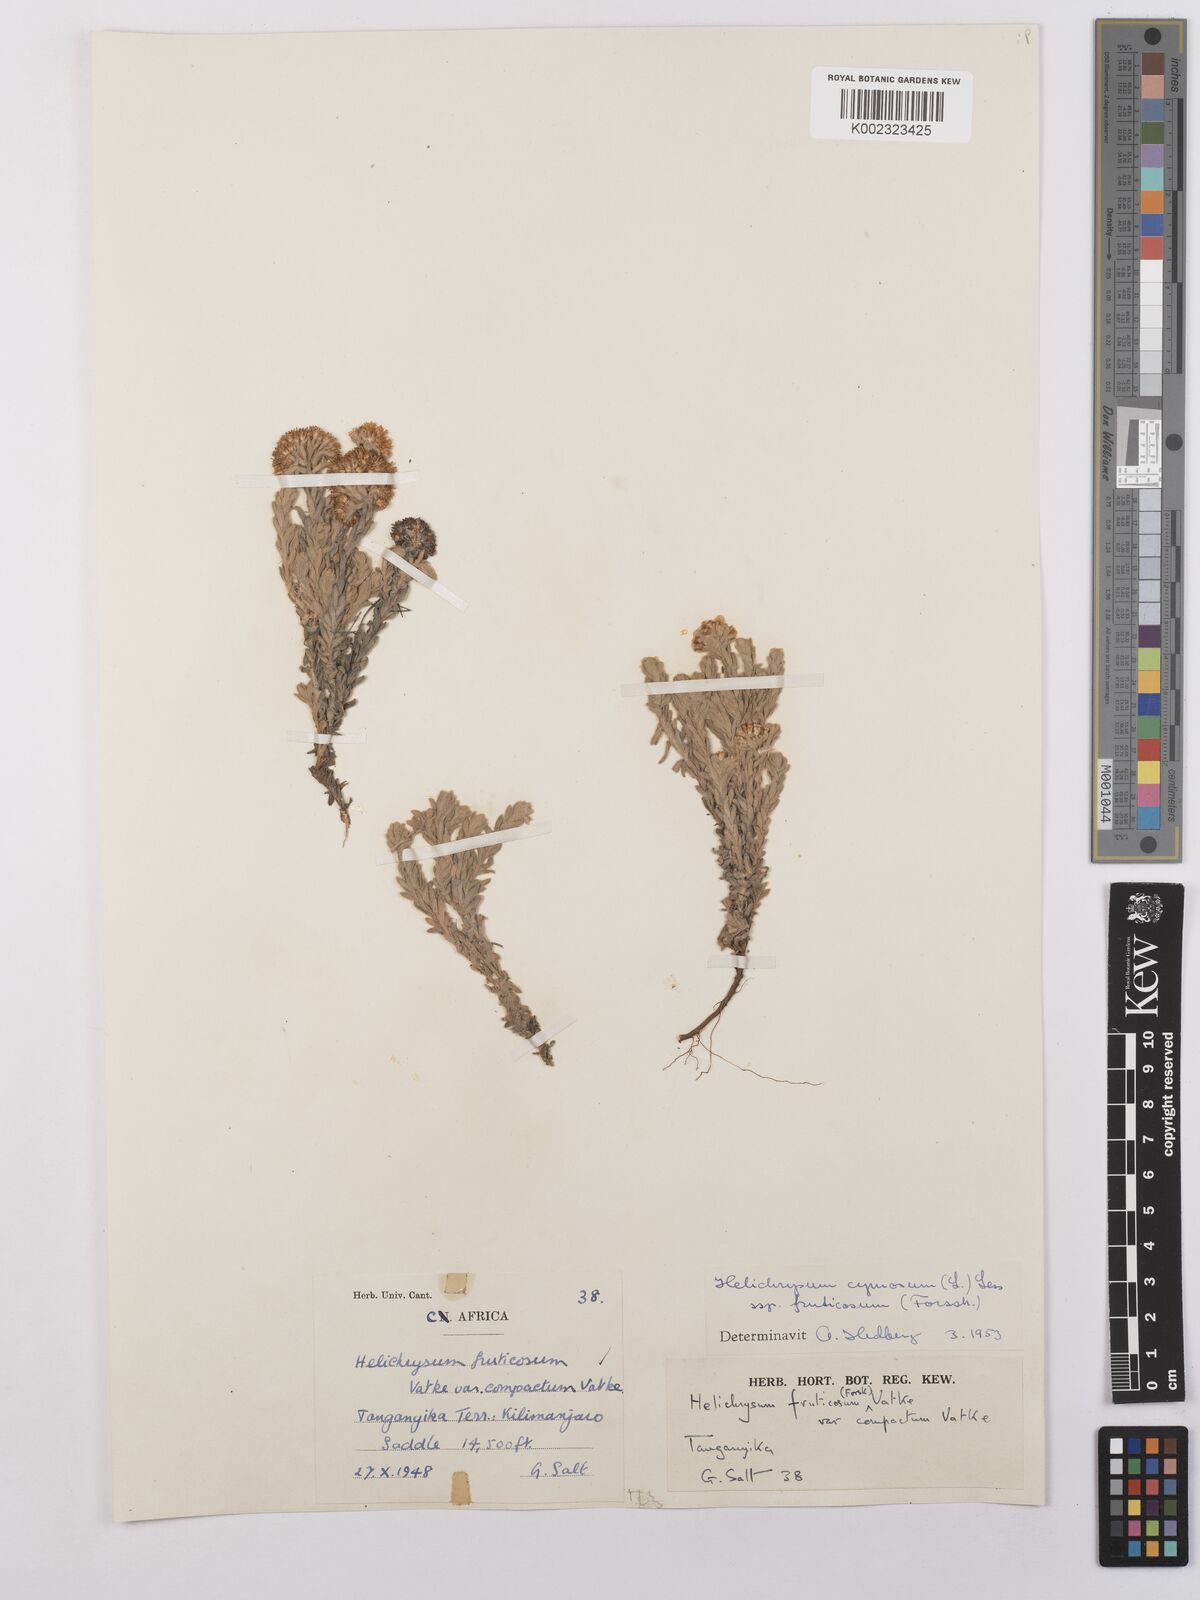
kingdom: Plantae
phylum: Tracheophyta
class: Magnoliopsida
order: Asterales
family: Asteraceae
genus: Helichrysum
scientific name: Helichrysum forskahlii
